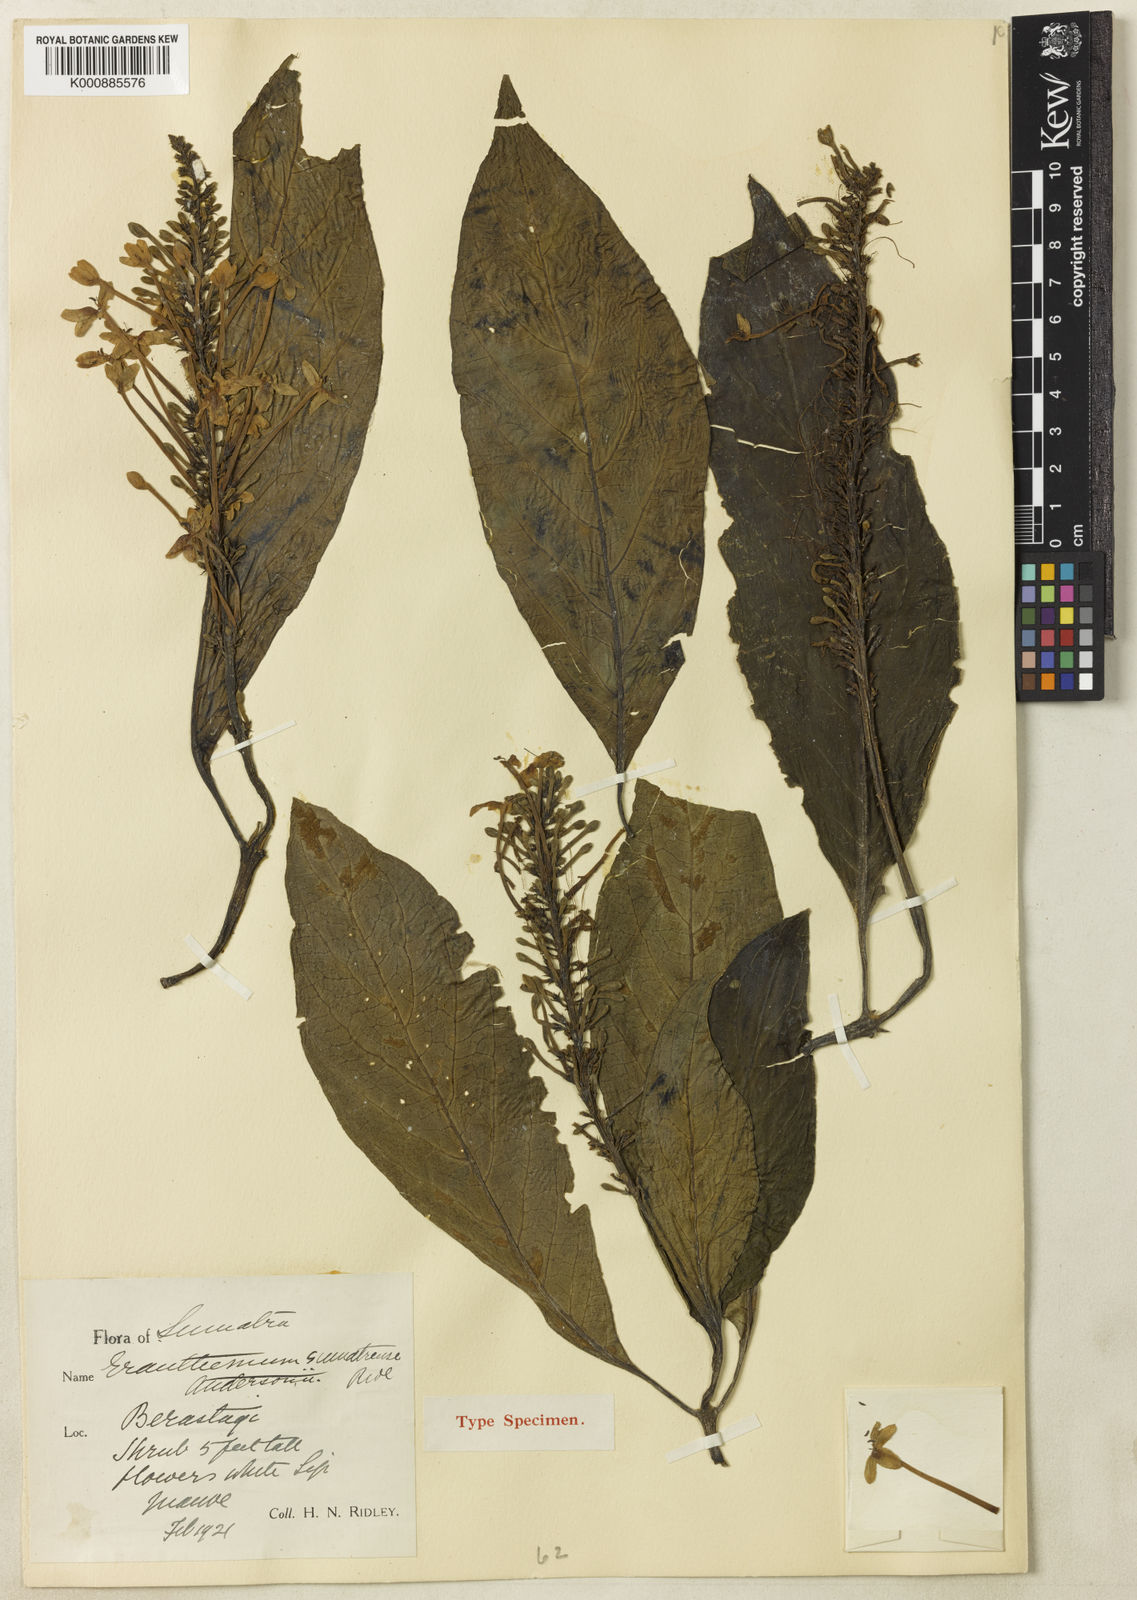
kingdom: Plantae
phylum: Tracheophyta
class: Magnoliopsida
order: Lamiales
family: Acanthaceae
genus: Pseuderanthemum
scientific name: Pseuderanthemum sumatrense
